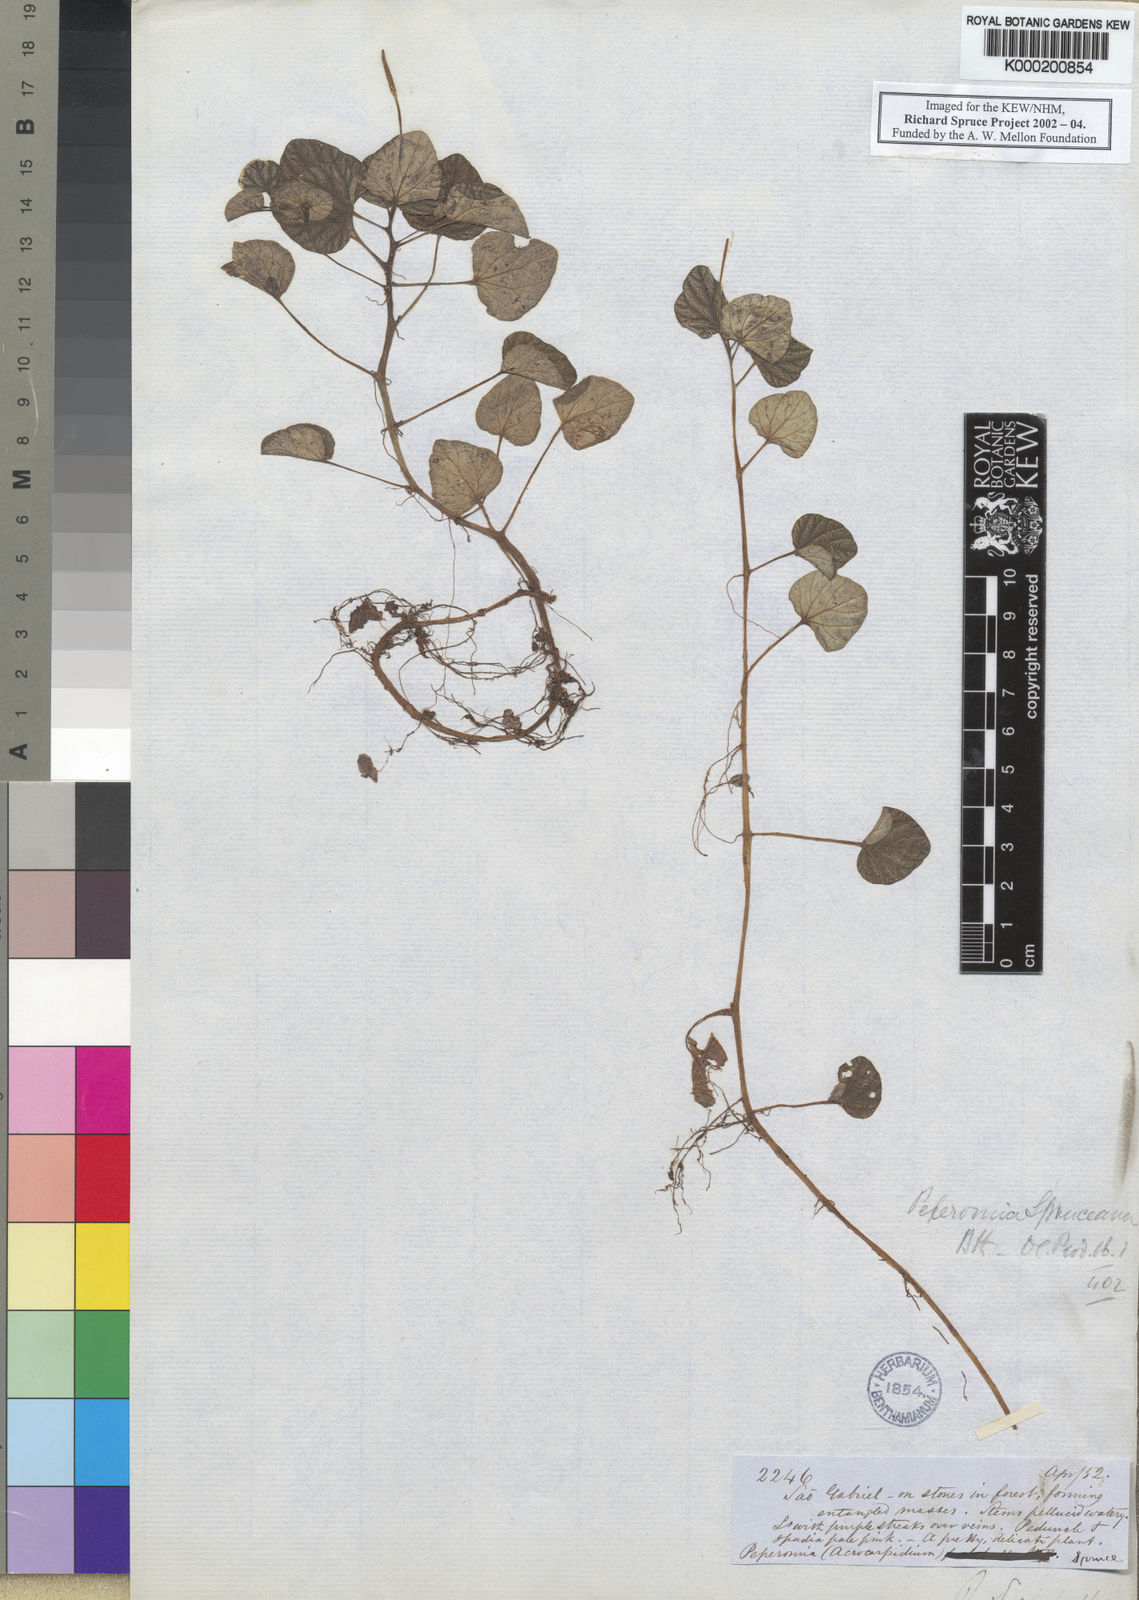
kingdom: Plantae
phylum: Tracheophyta
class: Magnoliopsida
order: Piperales
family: Piperaceae
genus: Peperomia
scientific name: Peperomia
